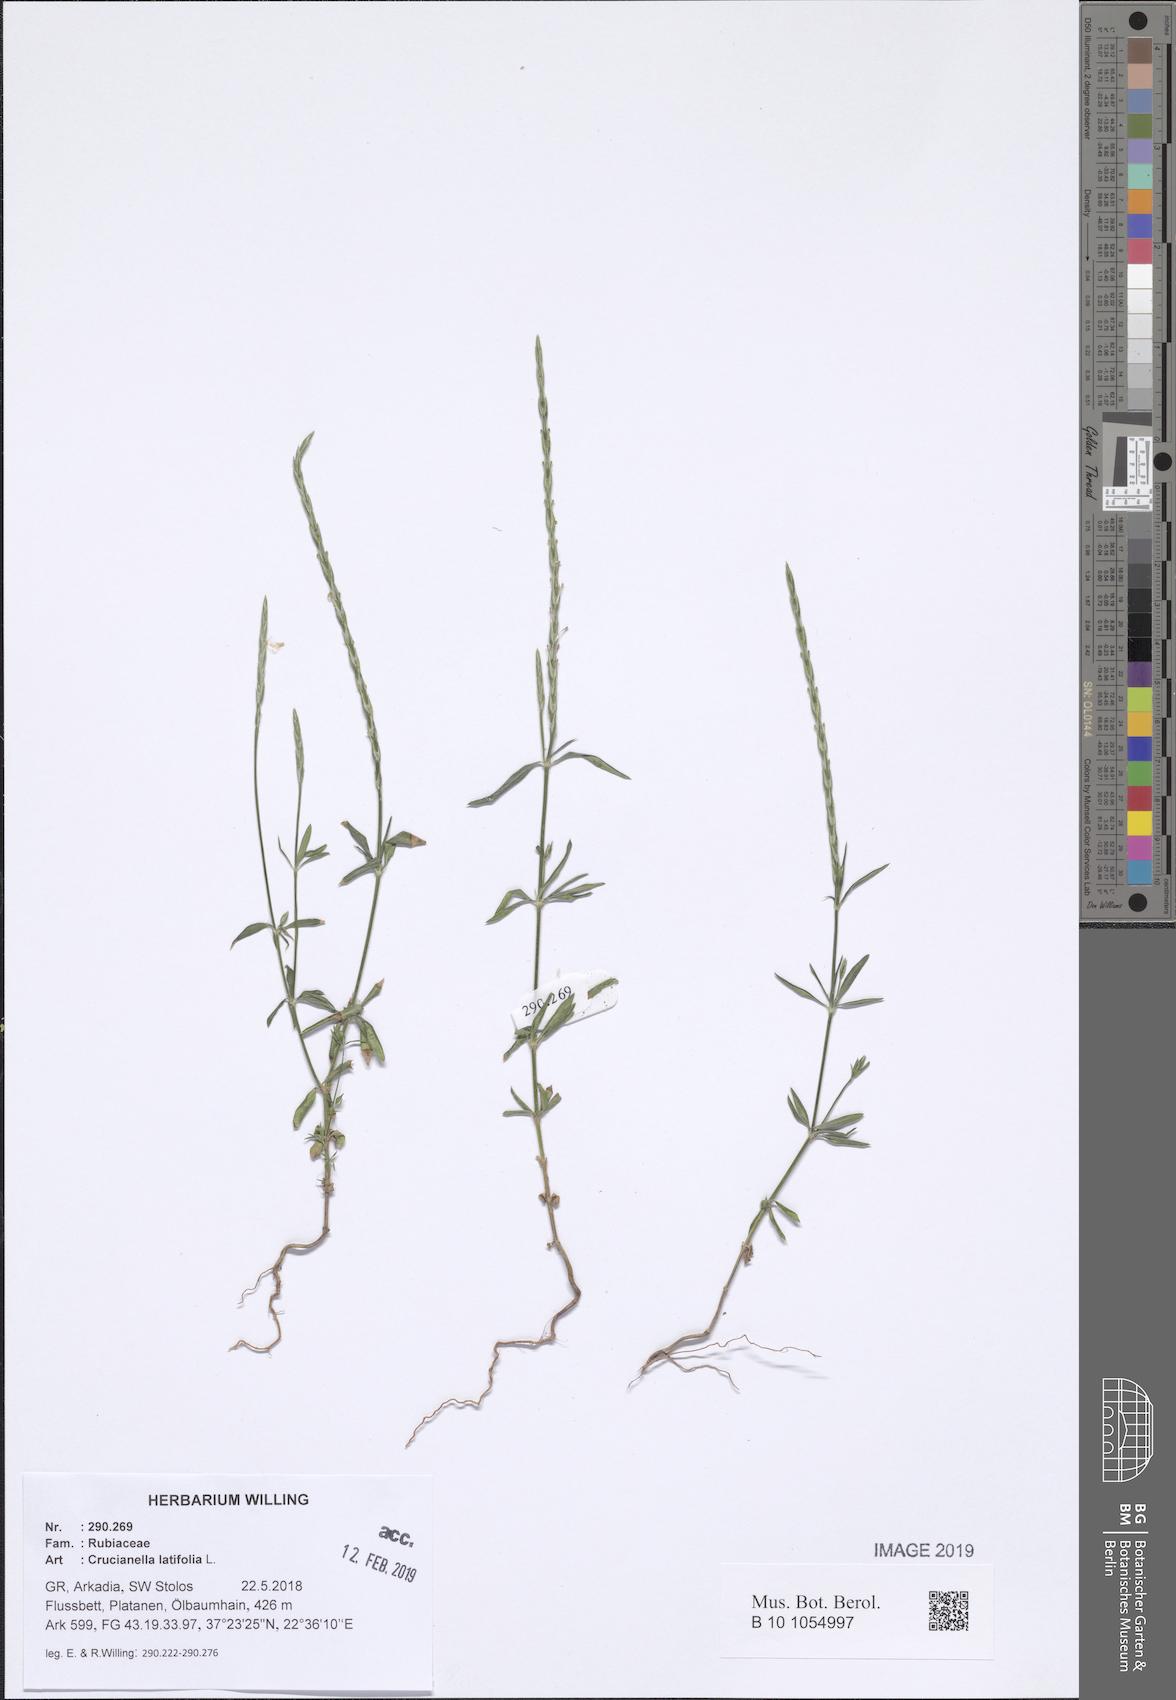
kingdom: Plantae
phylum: Tracheophyta
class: Magnoliopsida
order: Gentianales
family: Rubiaceae
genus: Crucianella
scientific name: Crucianella latifolia
